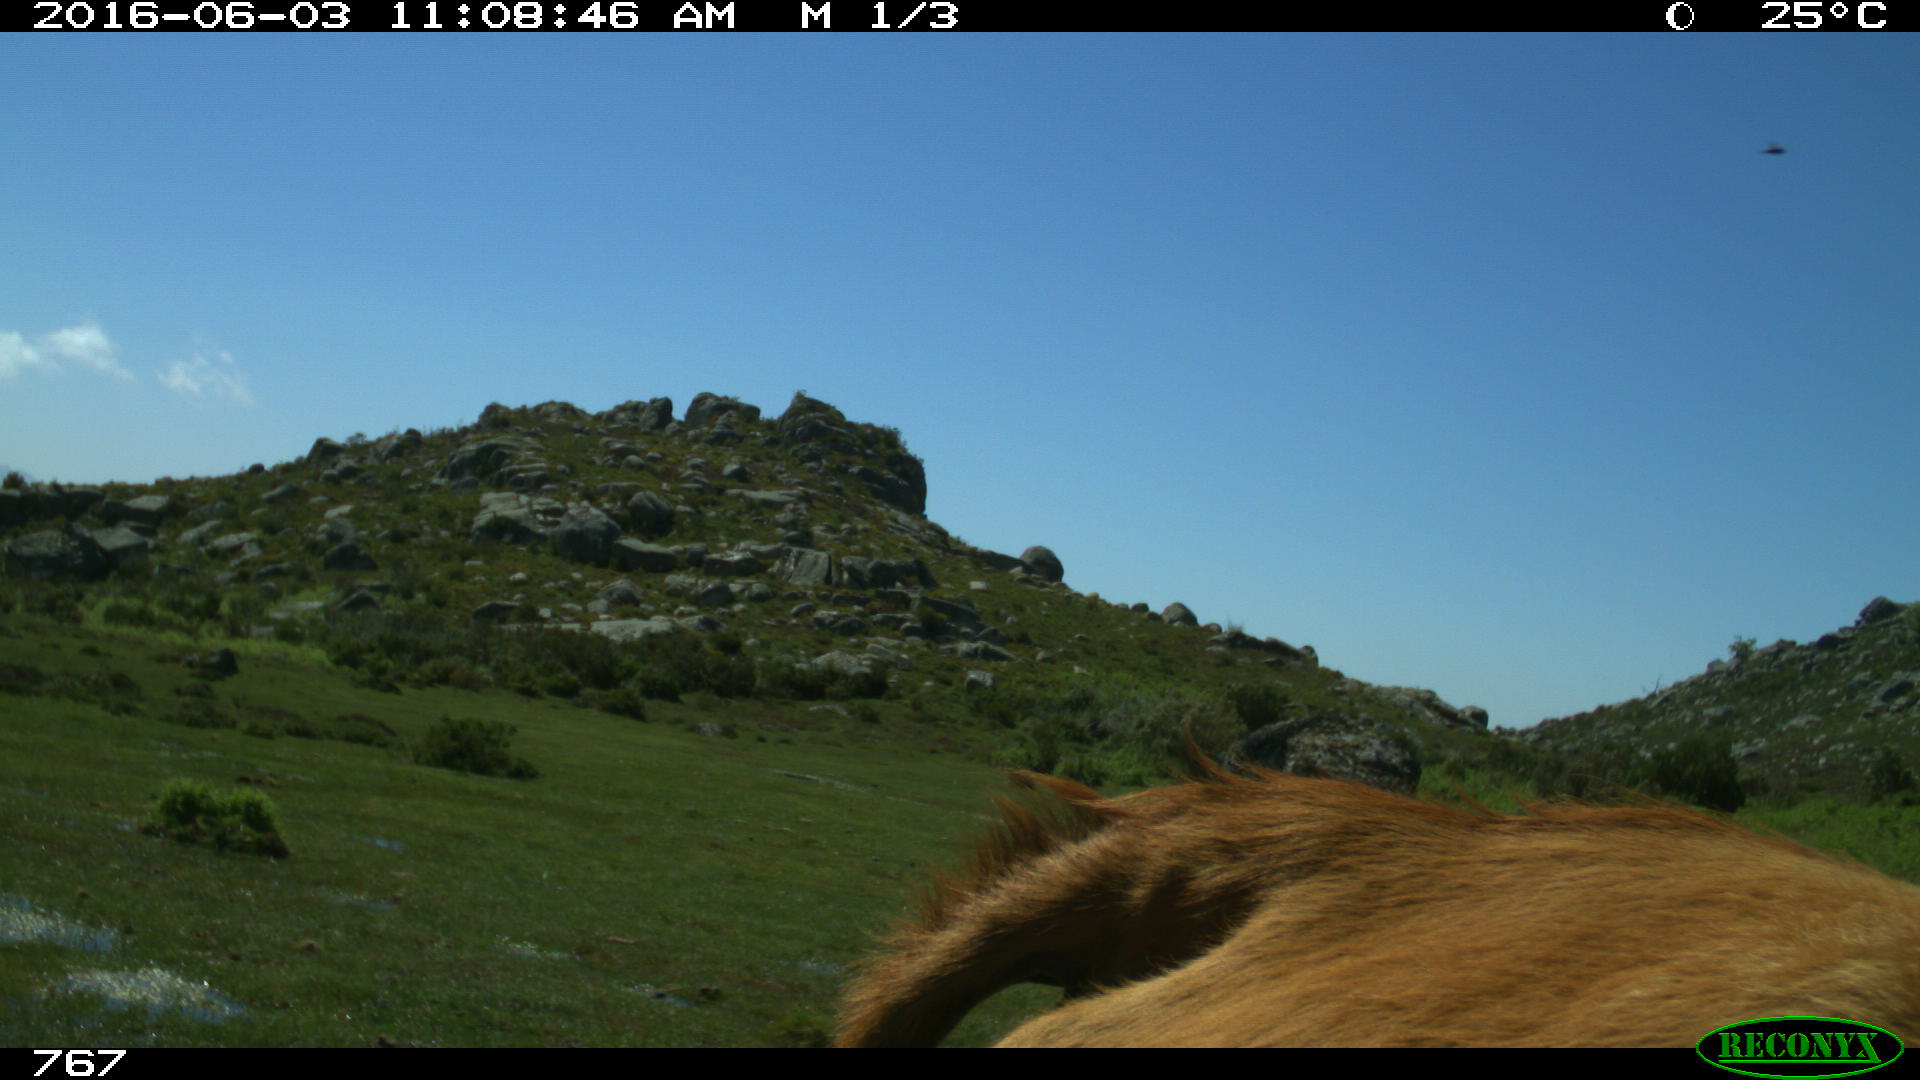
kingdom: Animalia
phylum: Chordata
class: Mammalia
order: Artiodactyla
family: Bovidae
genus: Bos
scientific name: Bos taurus
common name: Domesticated cattle
